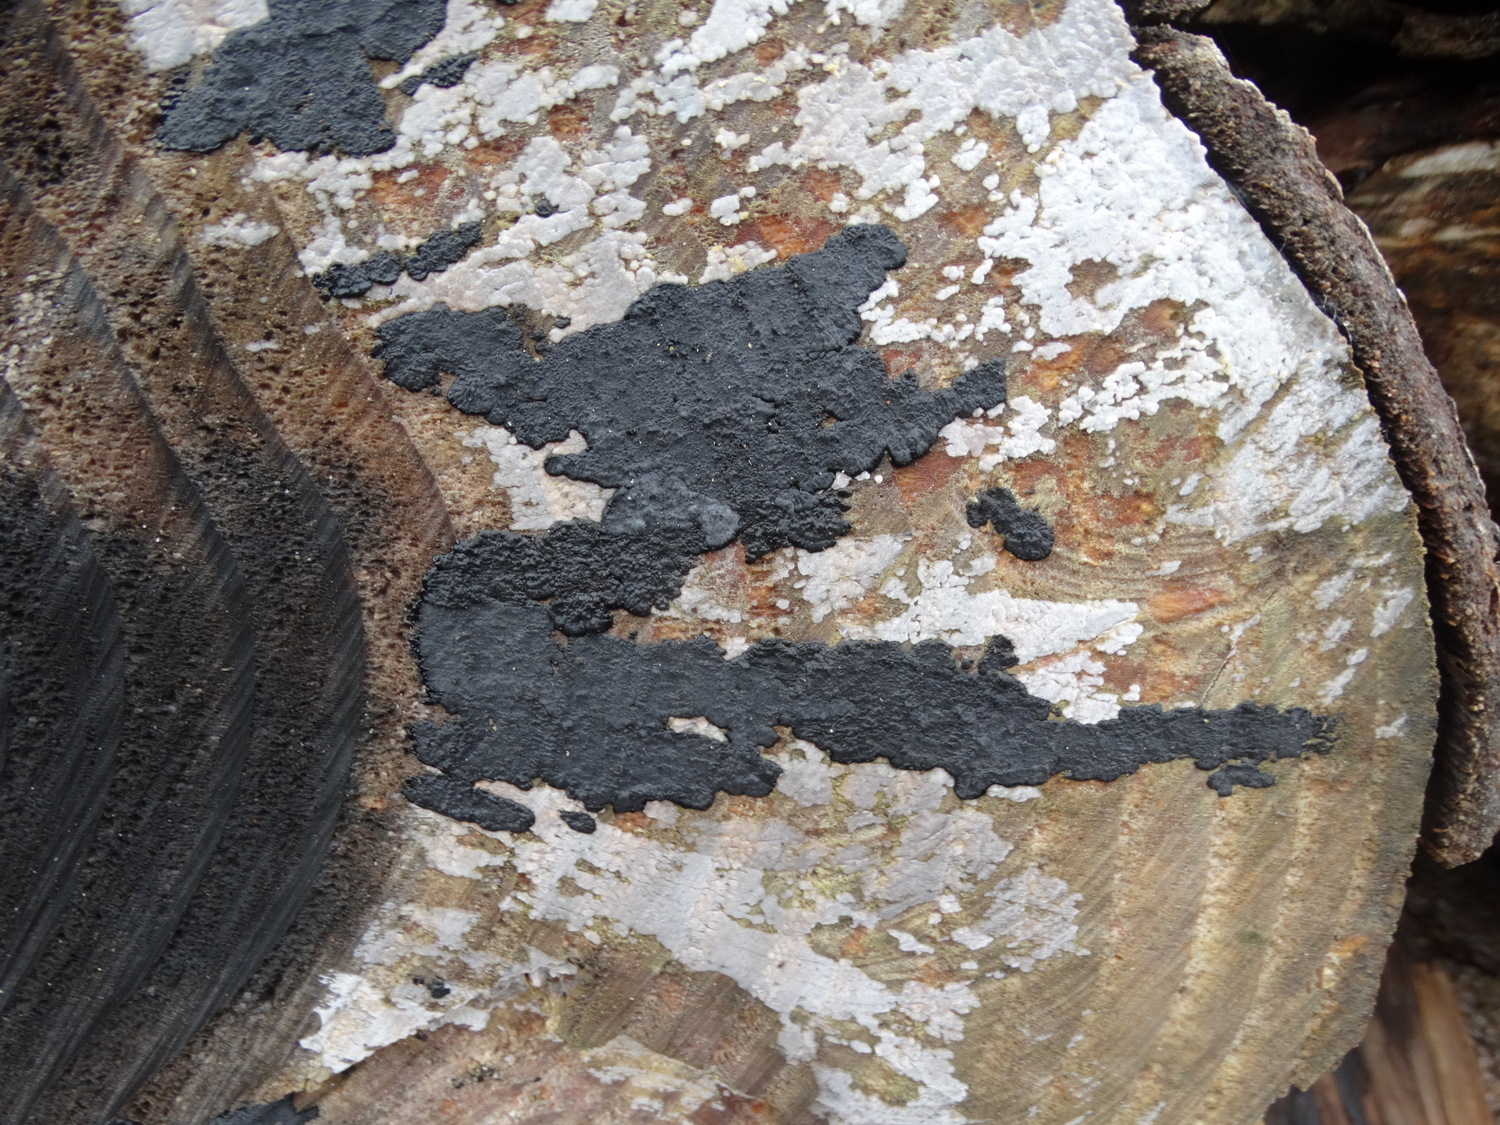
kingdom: Fungi
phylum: Basidiomycota
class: Agaricomycetes
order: Auriculariales
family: Auriculariaceae
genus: Exidia
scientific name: Exidia pithya
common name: gran-bævretop
